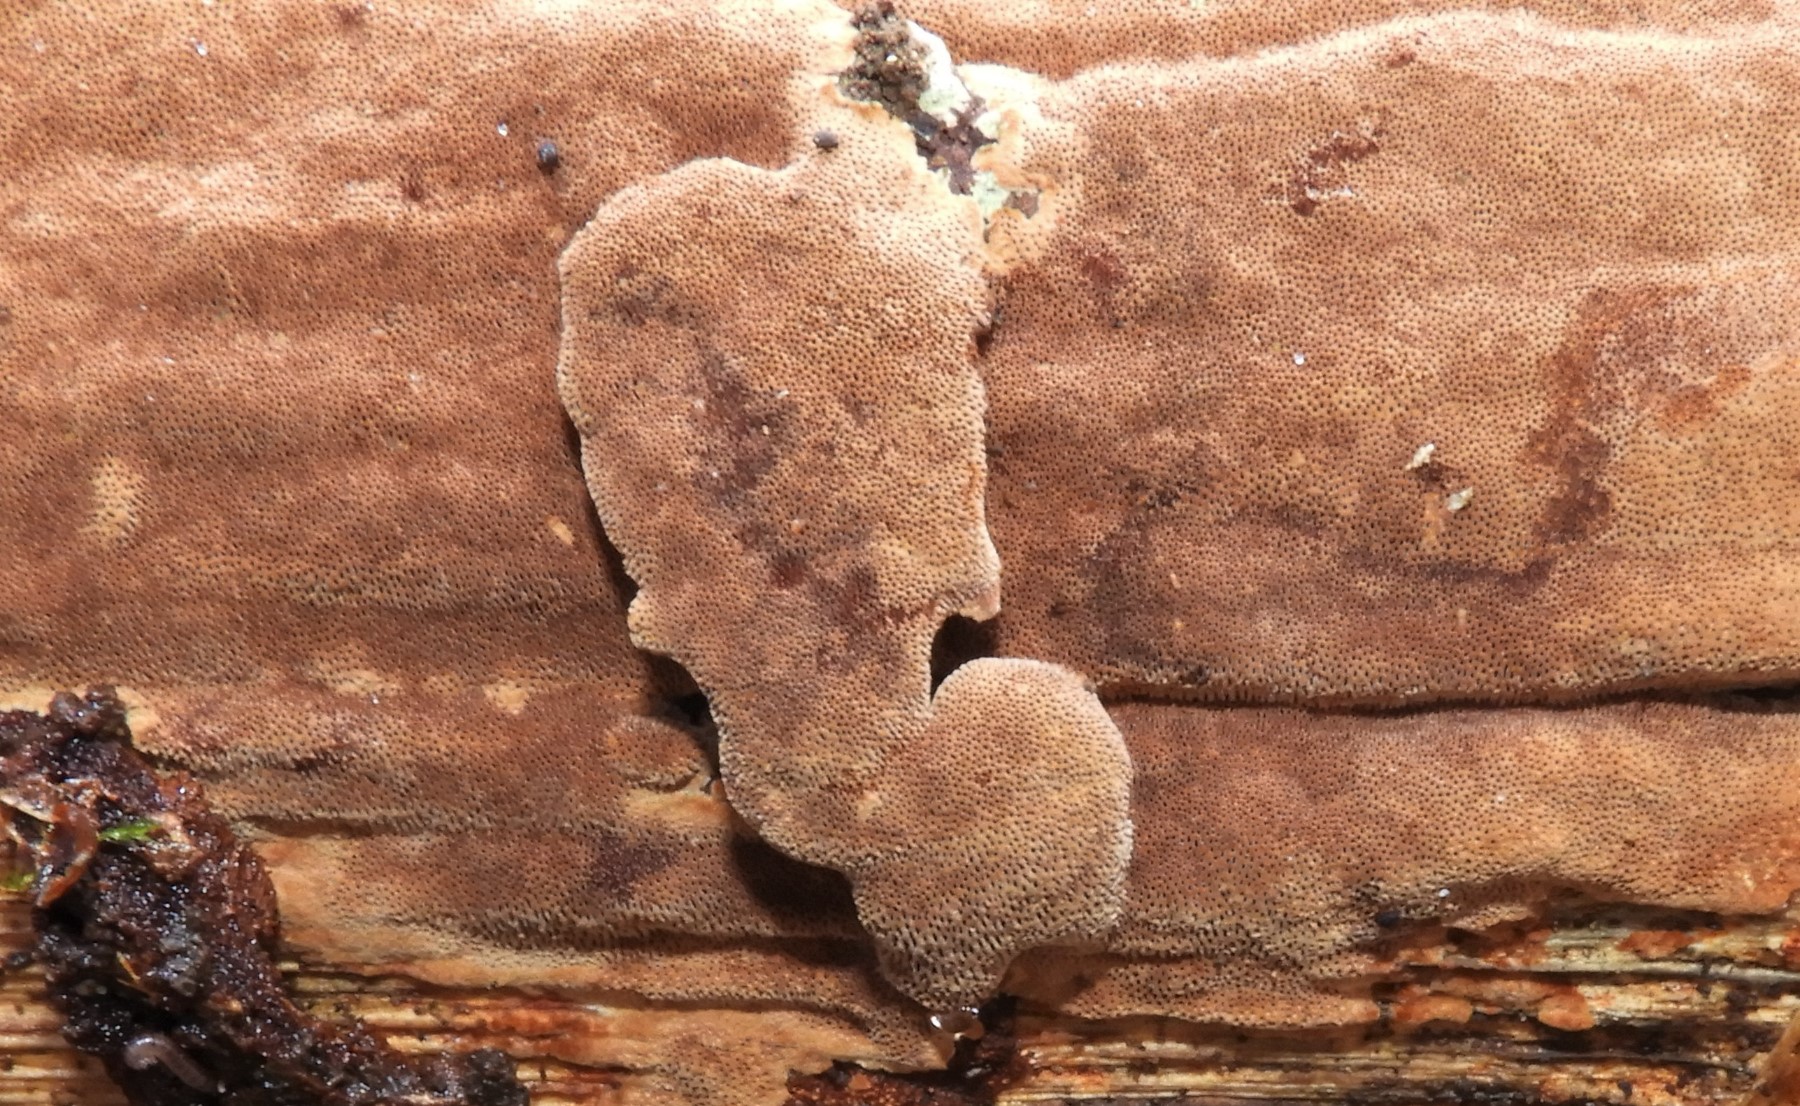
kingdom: Fungi
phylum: Basidiomycota
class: Agaricomycetes
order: Hymenochaetales
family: Hymenochaetaceae
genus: Fuscoporia
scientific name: Fuscoporia ferrea
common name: skorpe-ildporesvamp
